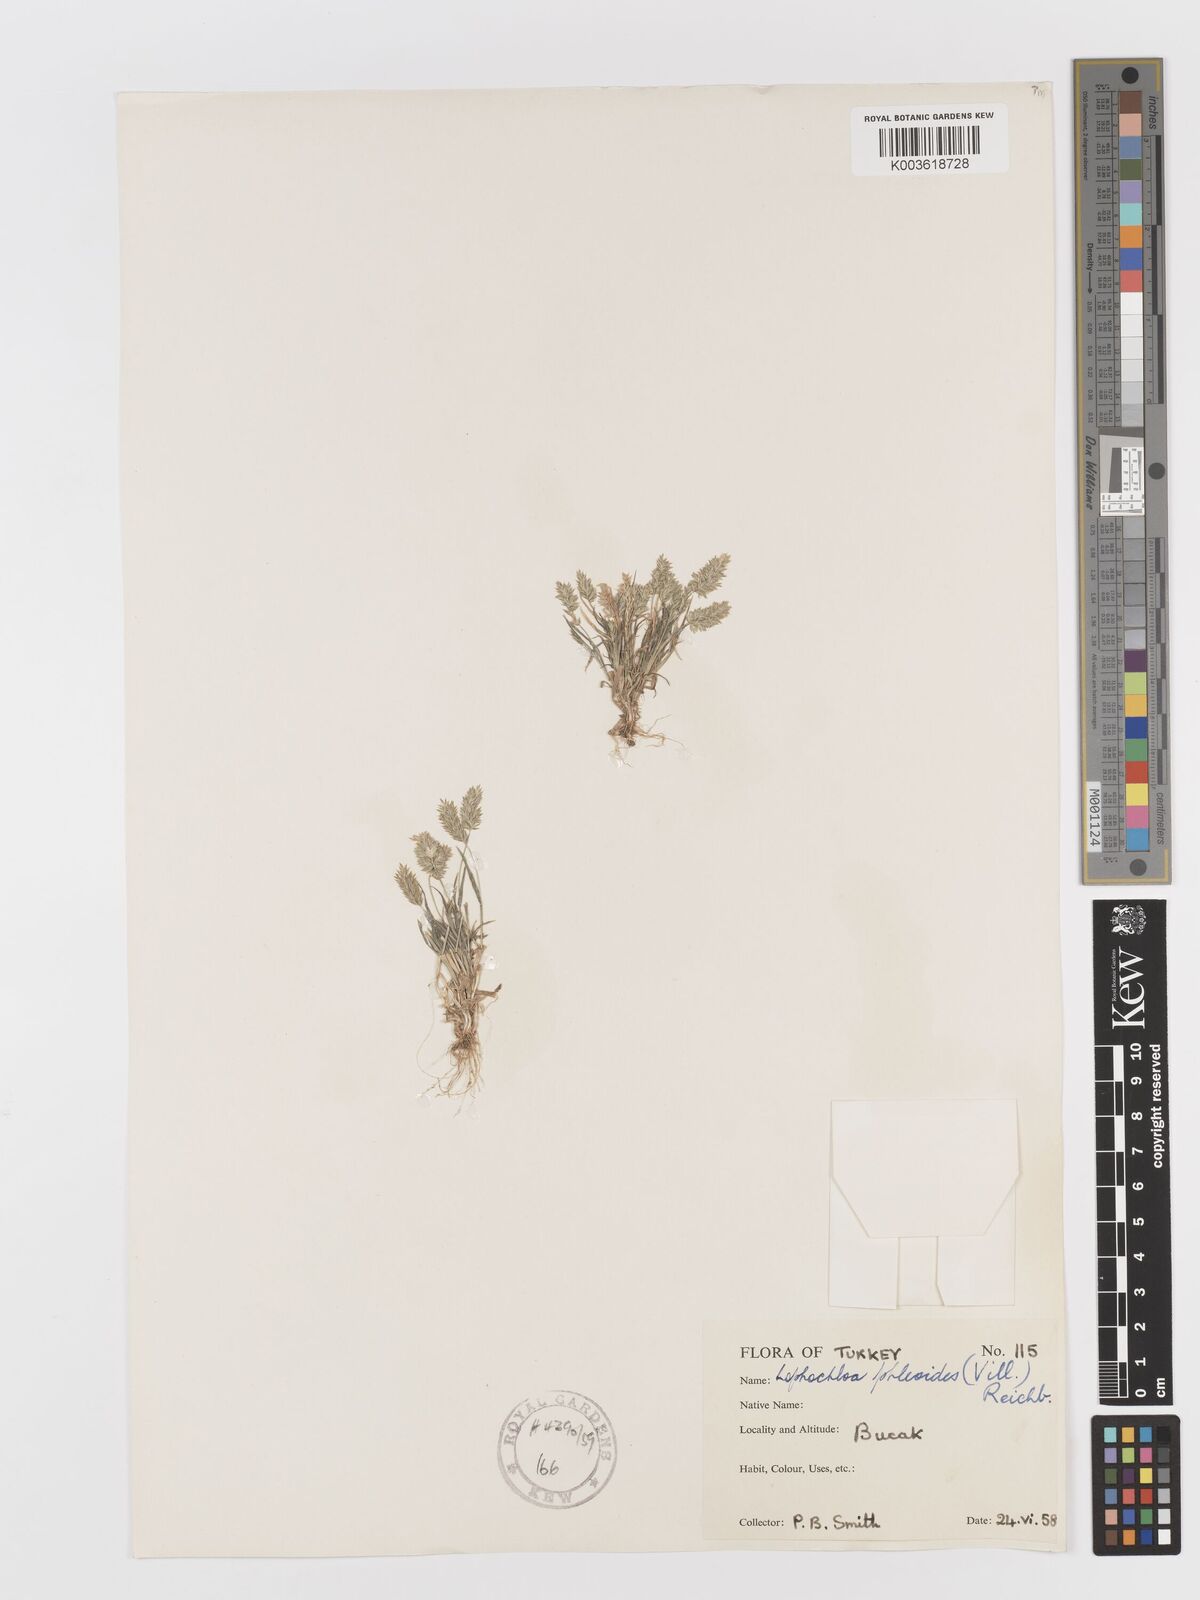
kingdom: Plantae
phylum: Tracheophyta
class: Liliopsida
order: Poales
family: Poaceae
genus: Rostraria
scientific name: Rostraria cristata
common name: Mediterranean hair-grass
